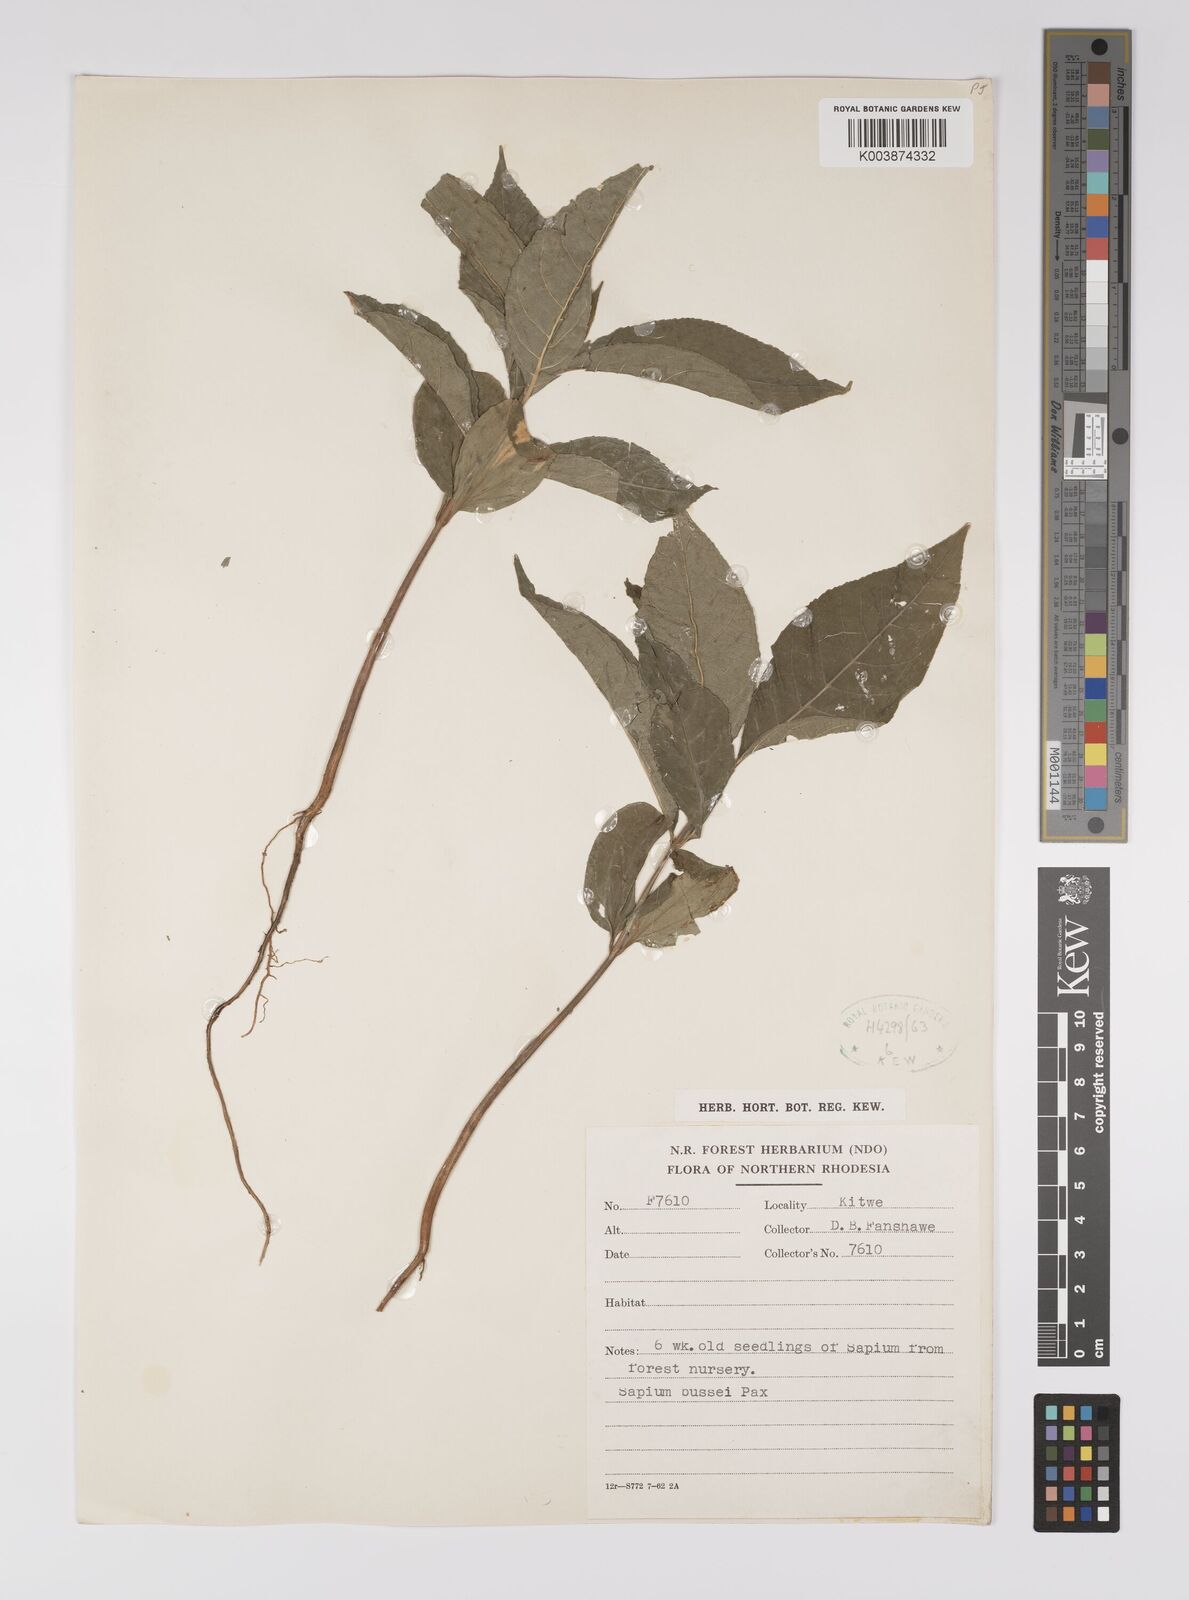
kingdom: Plantae
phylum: Tracheophyta
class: Magnoliopsida
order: Malpighiales
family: Euphorbiaceae
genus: Excoecaria
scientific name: Excoecaria bussei
